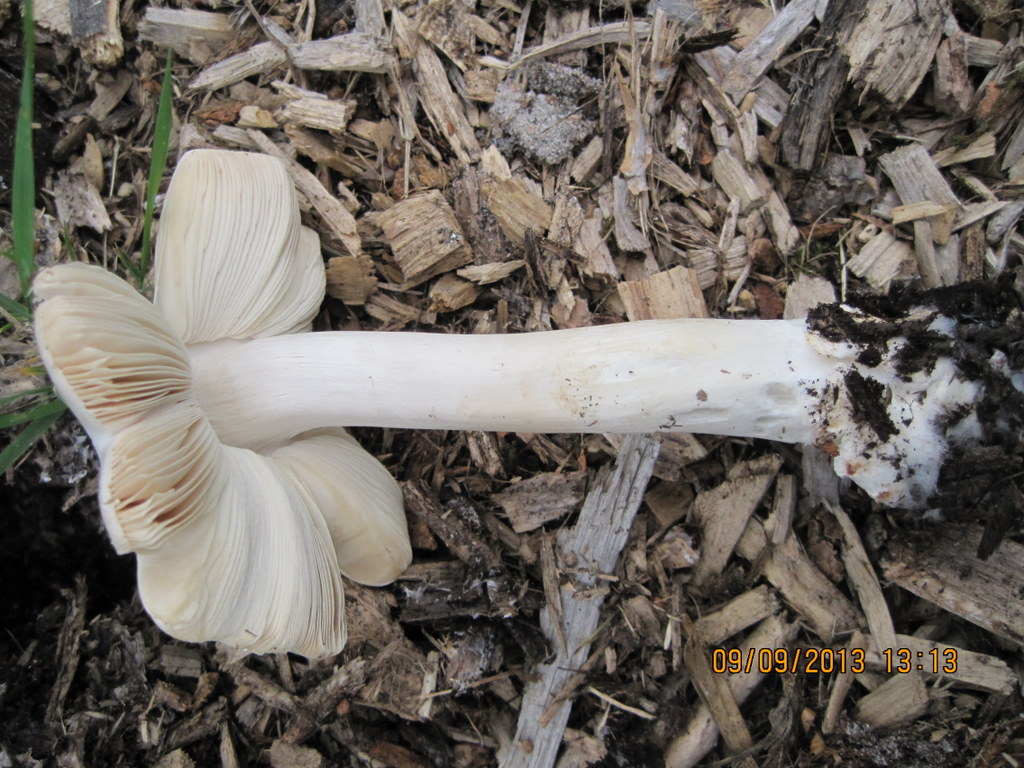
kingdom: Fungi
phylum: Basidiomycota
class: Agaricomycetes
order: Agaricales
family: Pluteaceae
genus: Volvopluteus
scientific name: Volvopluteus gloiocephalus
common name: høj posesvamp
